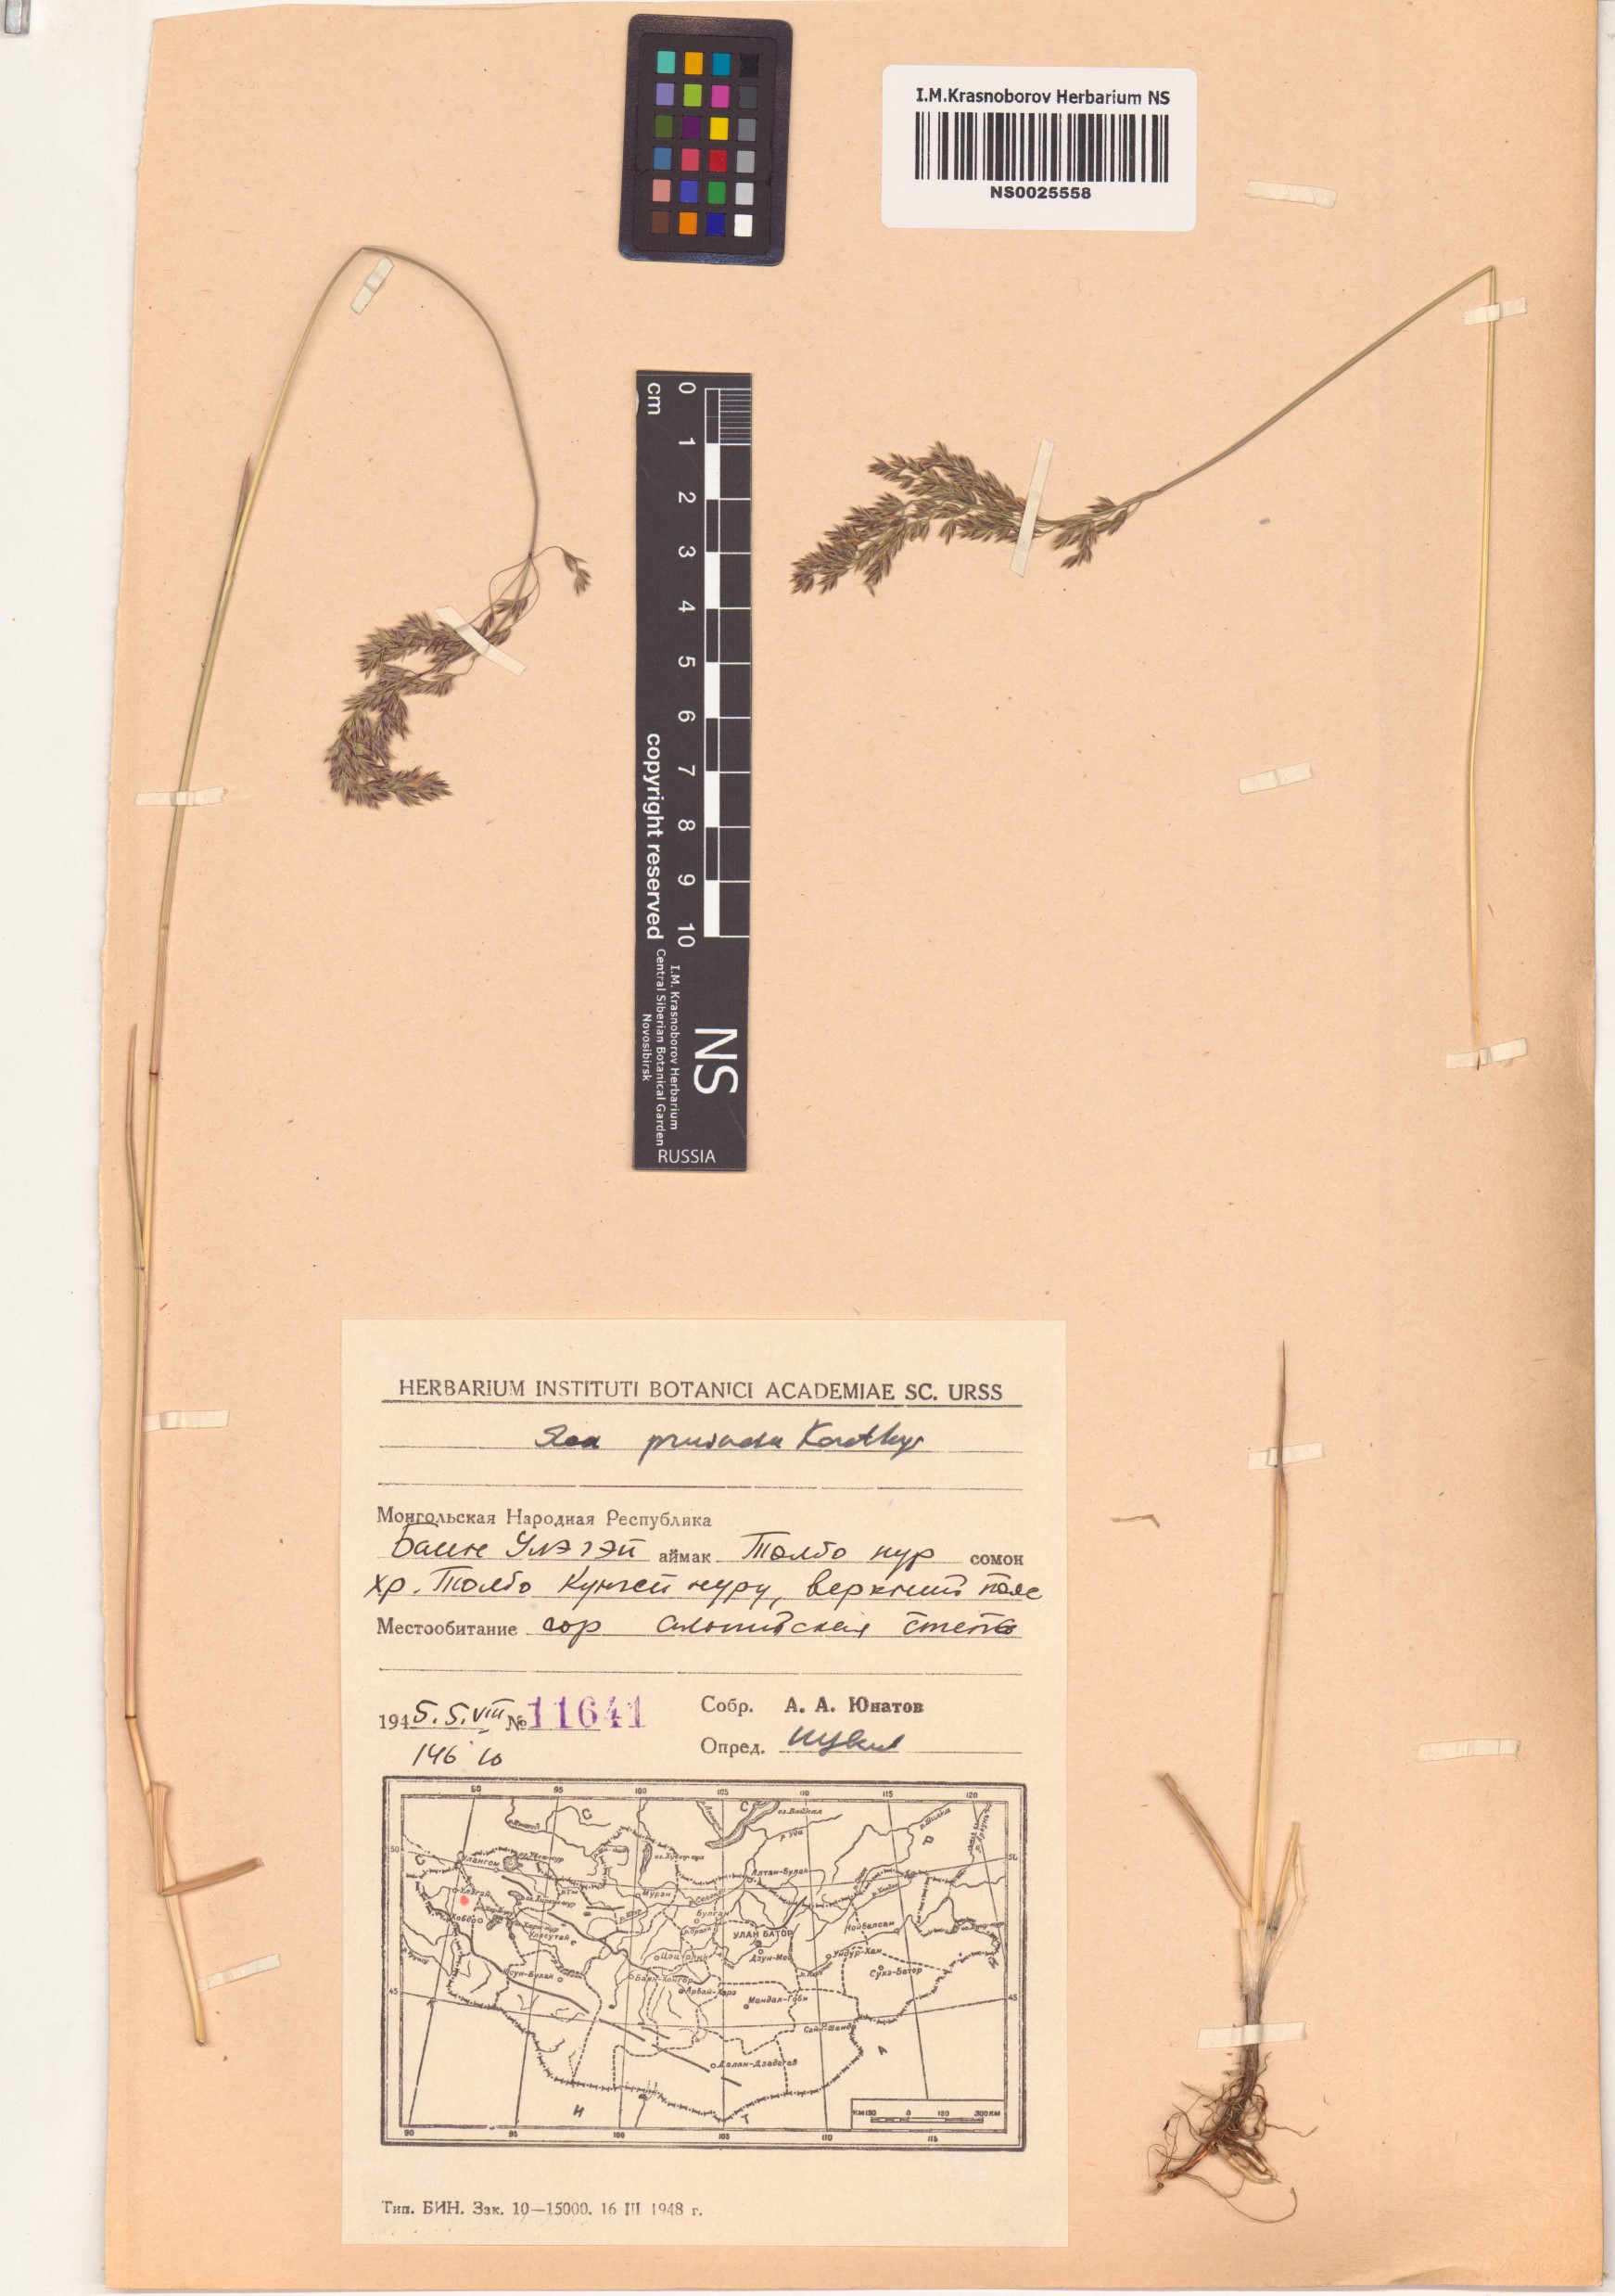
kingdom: Plantae
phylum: Tracheophyta
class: Liliopsida
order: Poales
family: Poaceae
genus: Poa
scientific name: Poa tianschanica
